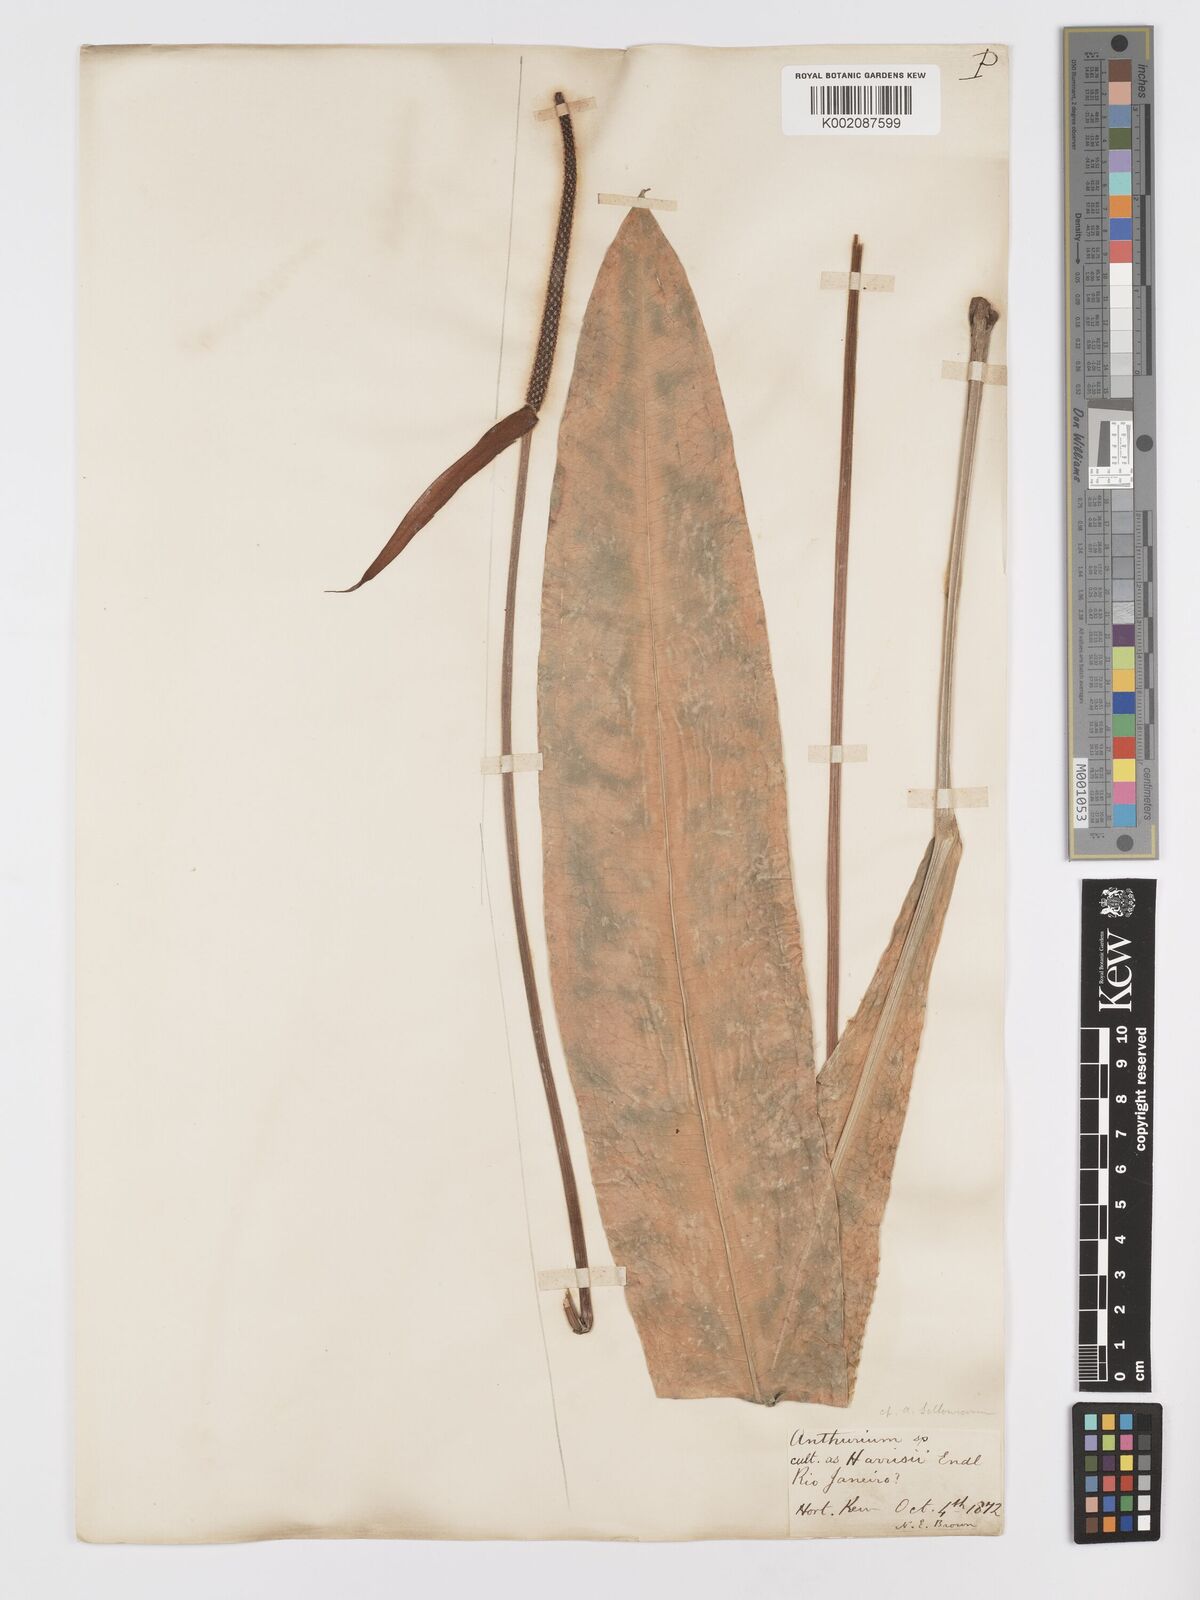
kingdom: Plantae
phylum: Tracheophyta
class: Liliopsida
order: Alismatales
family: Araceae
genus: Anthurium
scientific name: Anthurium harrisii
